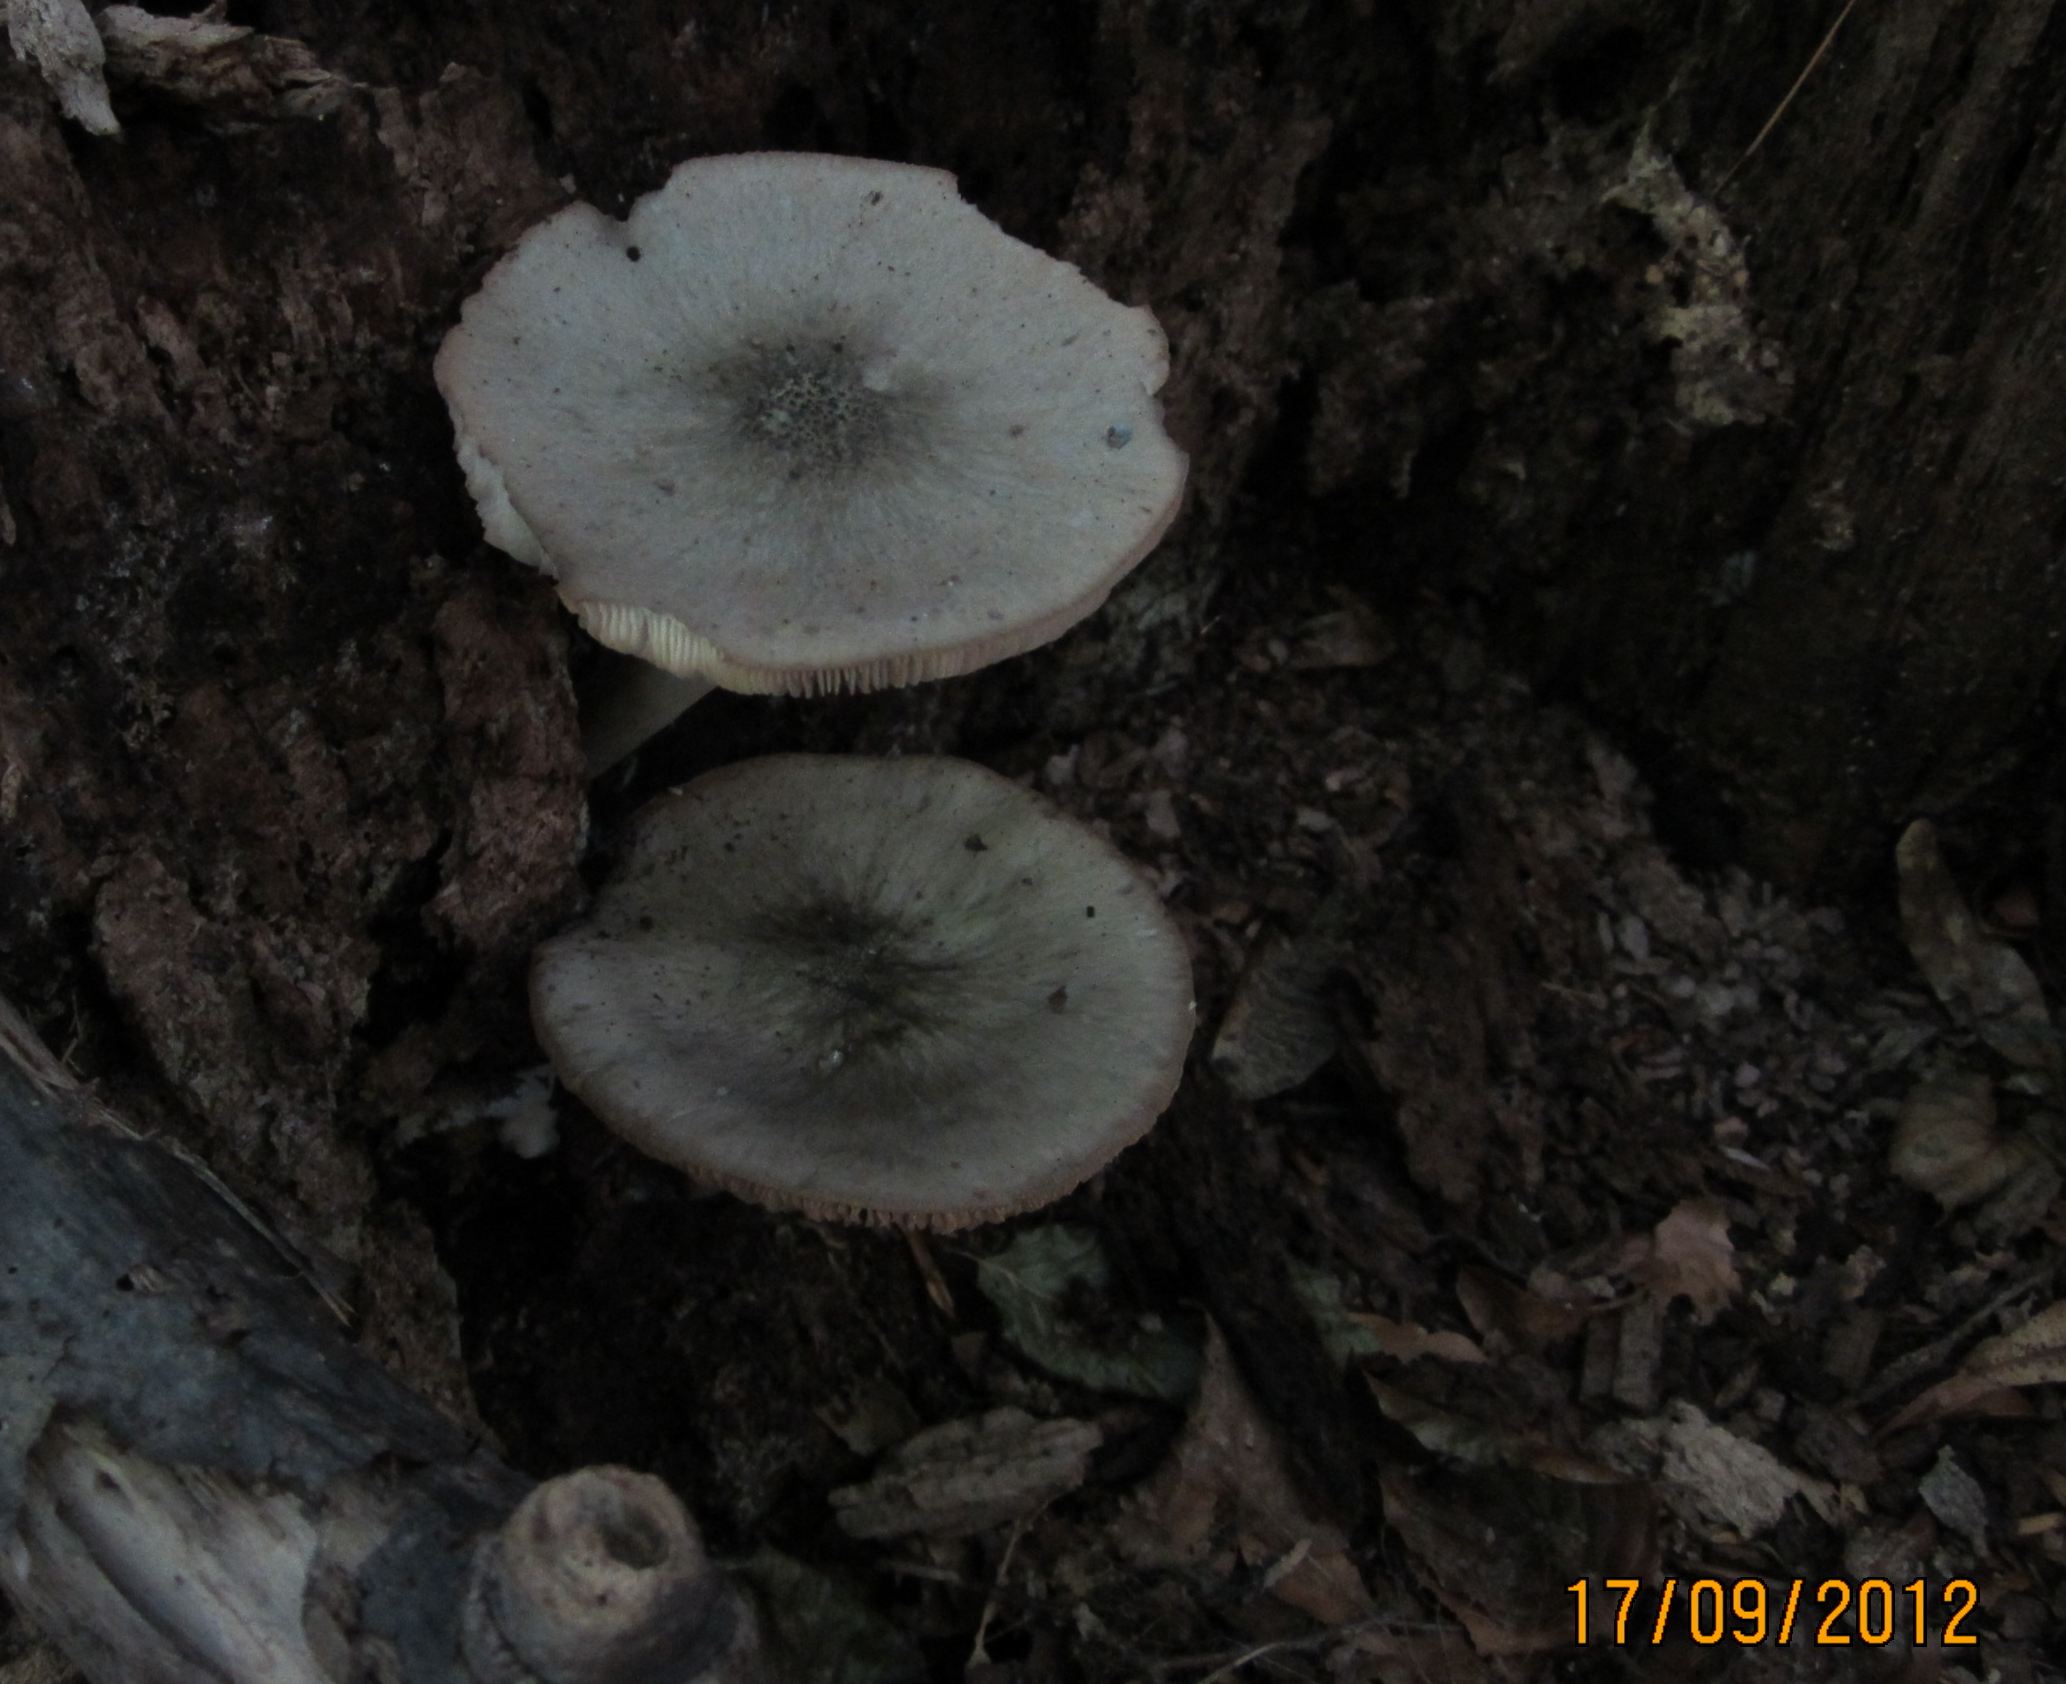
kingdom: Fungi
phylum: Basidiomycota
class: Agaricomycetes
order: Agaricales
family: Pluteaceae
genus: Pluteus
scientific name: Pluteus salicinus
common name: stiv skærmhat
